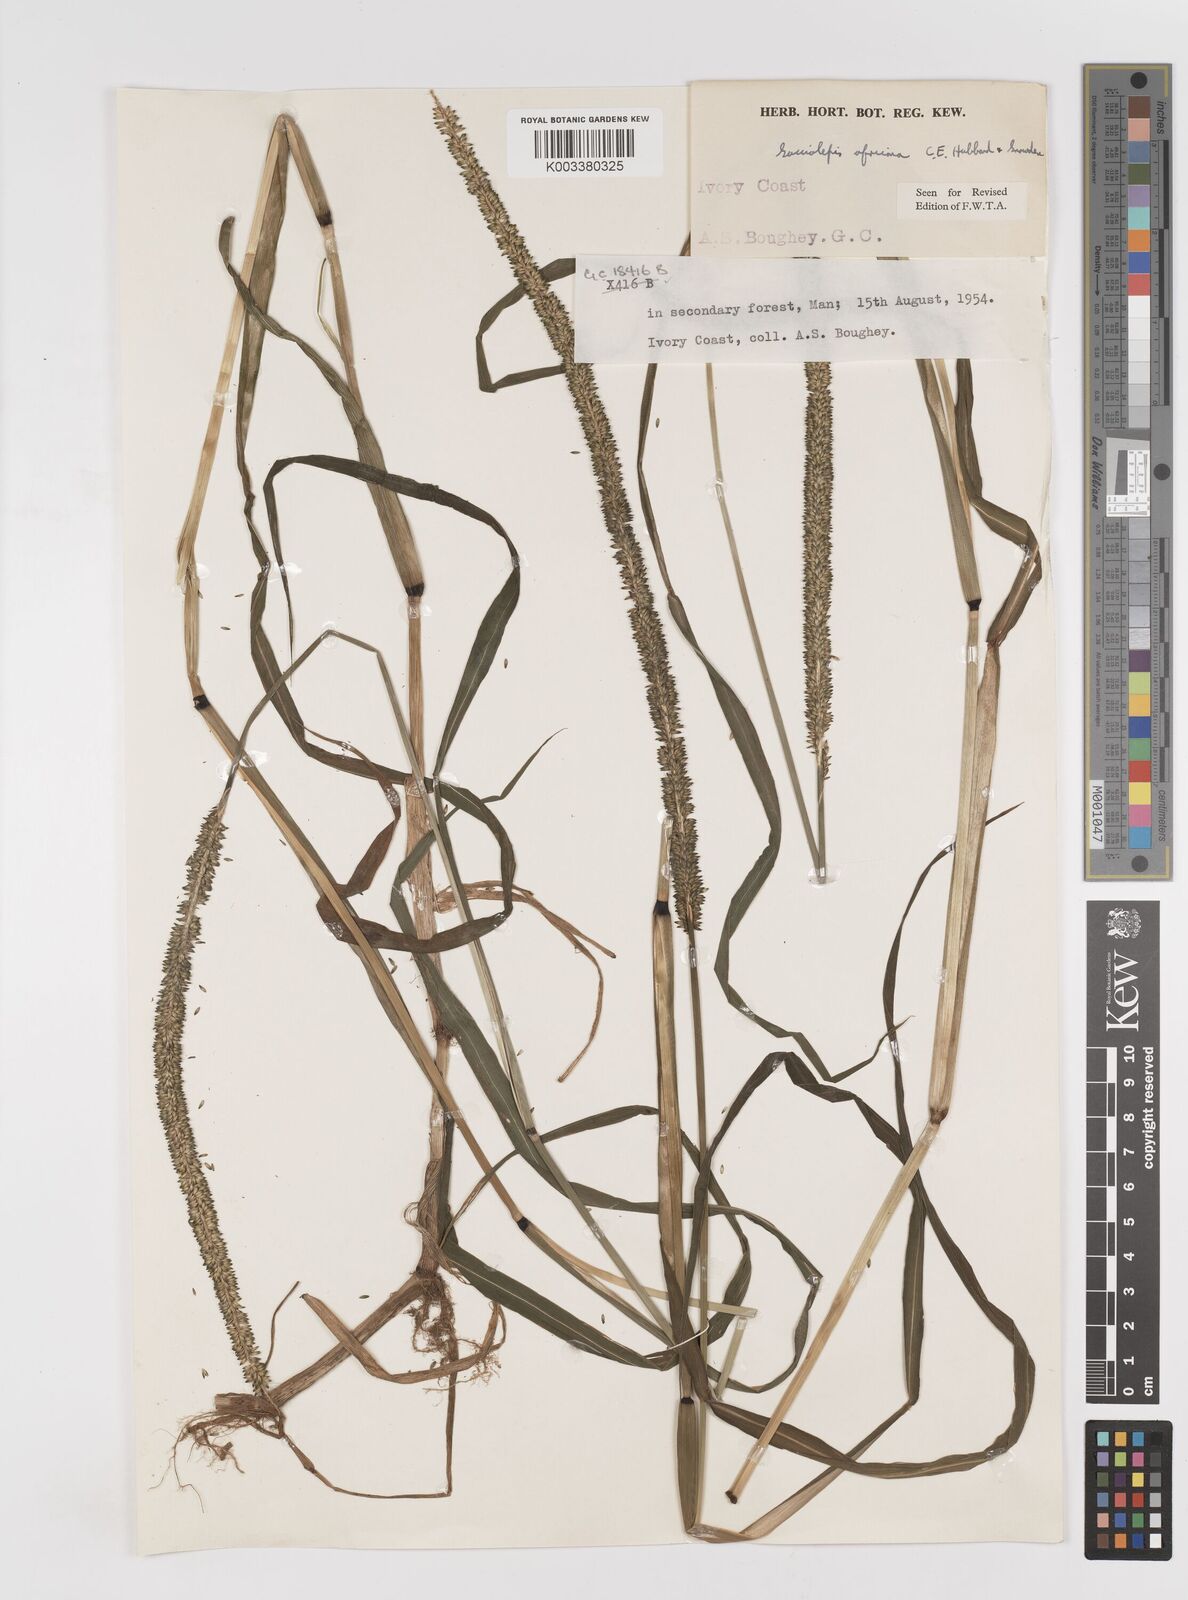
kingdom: Plantae
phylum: Tracheophyta
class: Liliopsida
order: Poales
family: Poaceae
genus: Sacciolepis
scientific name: Sacciolepis africana
